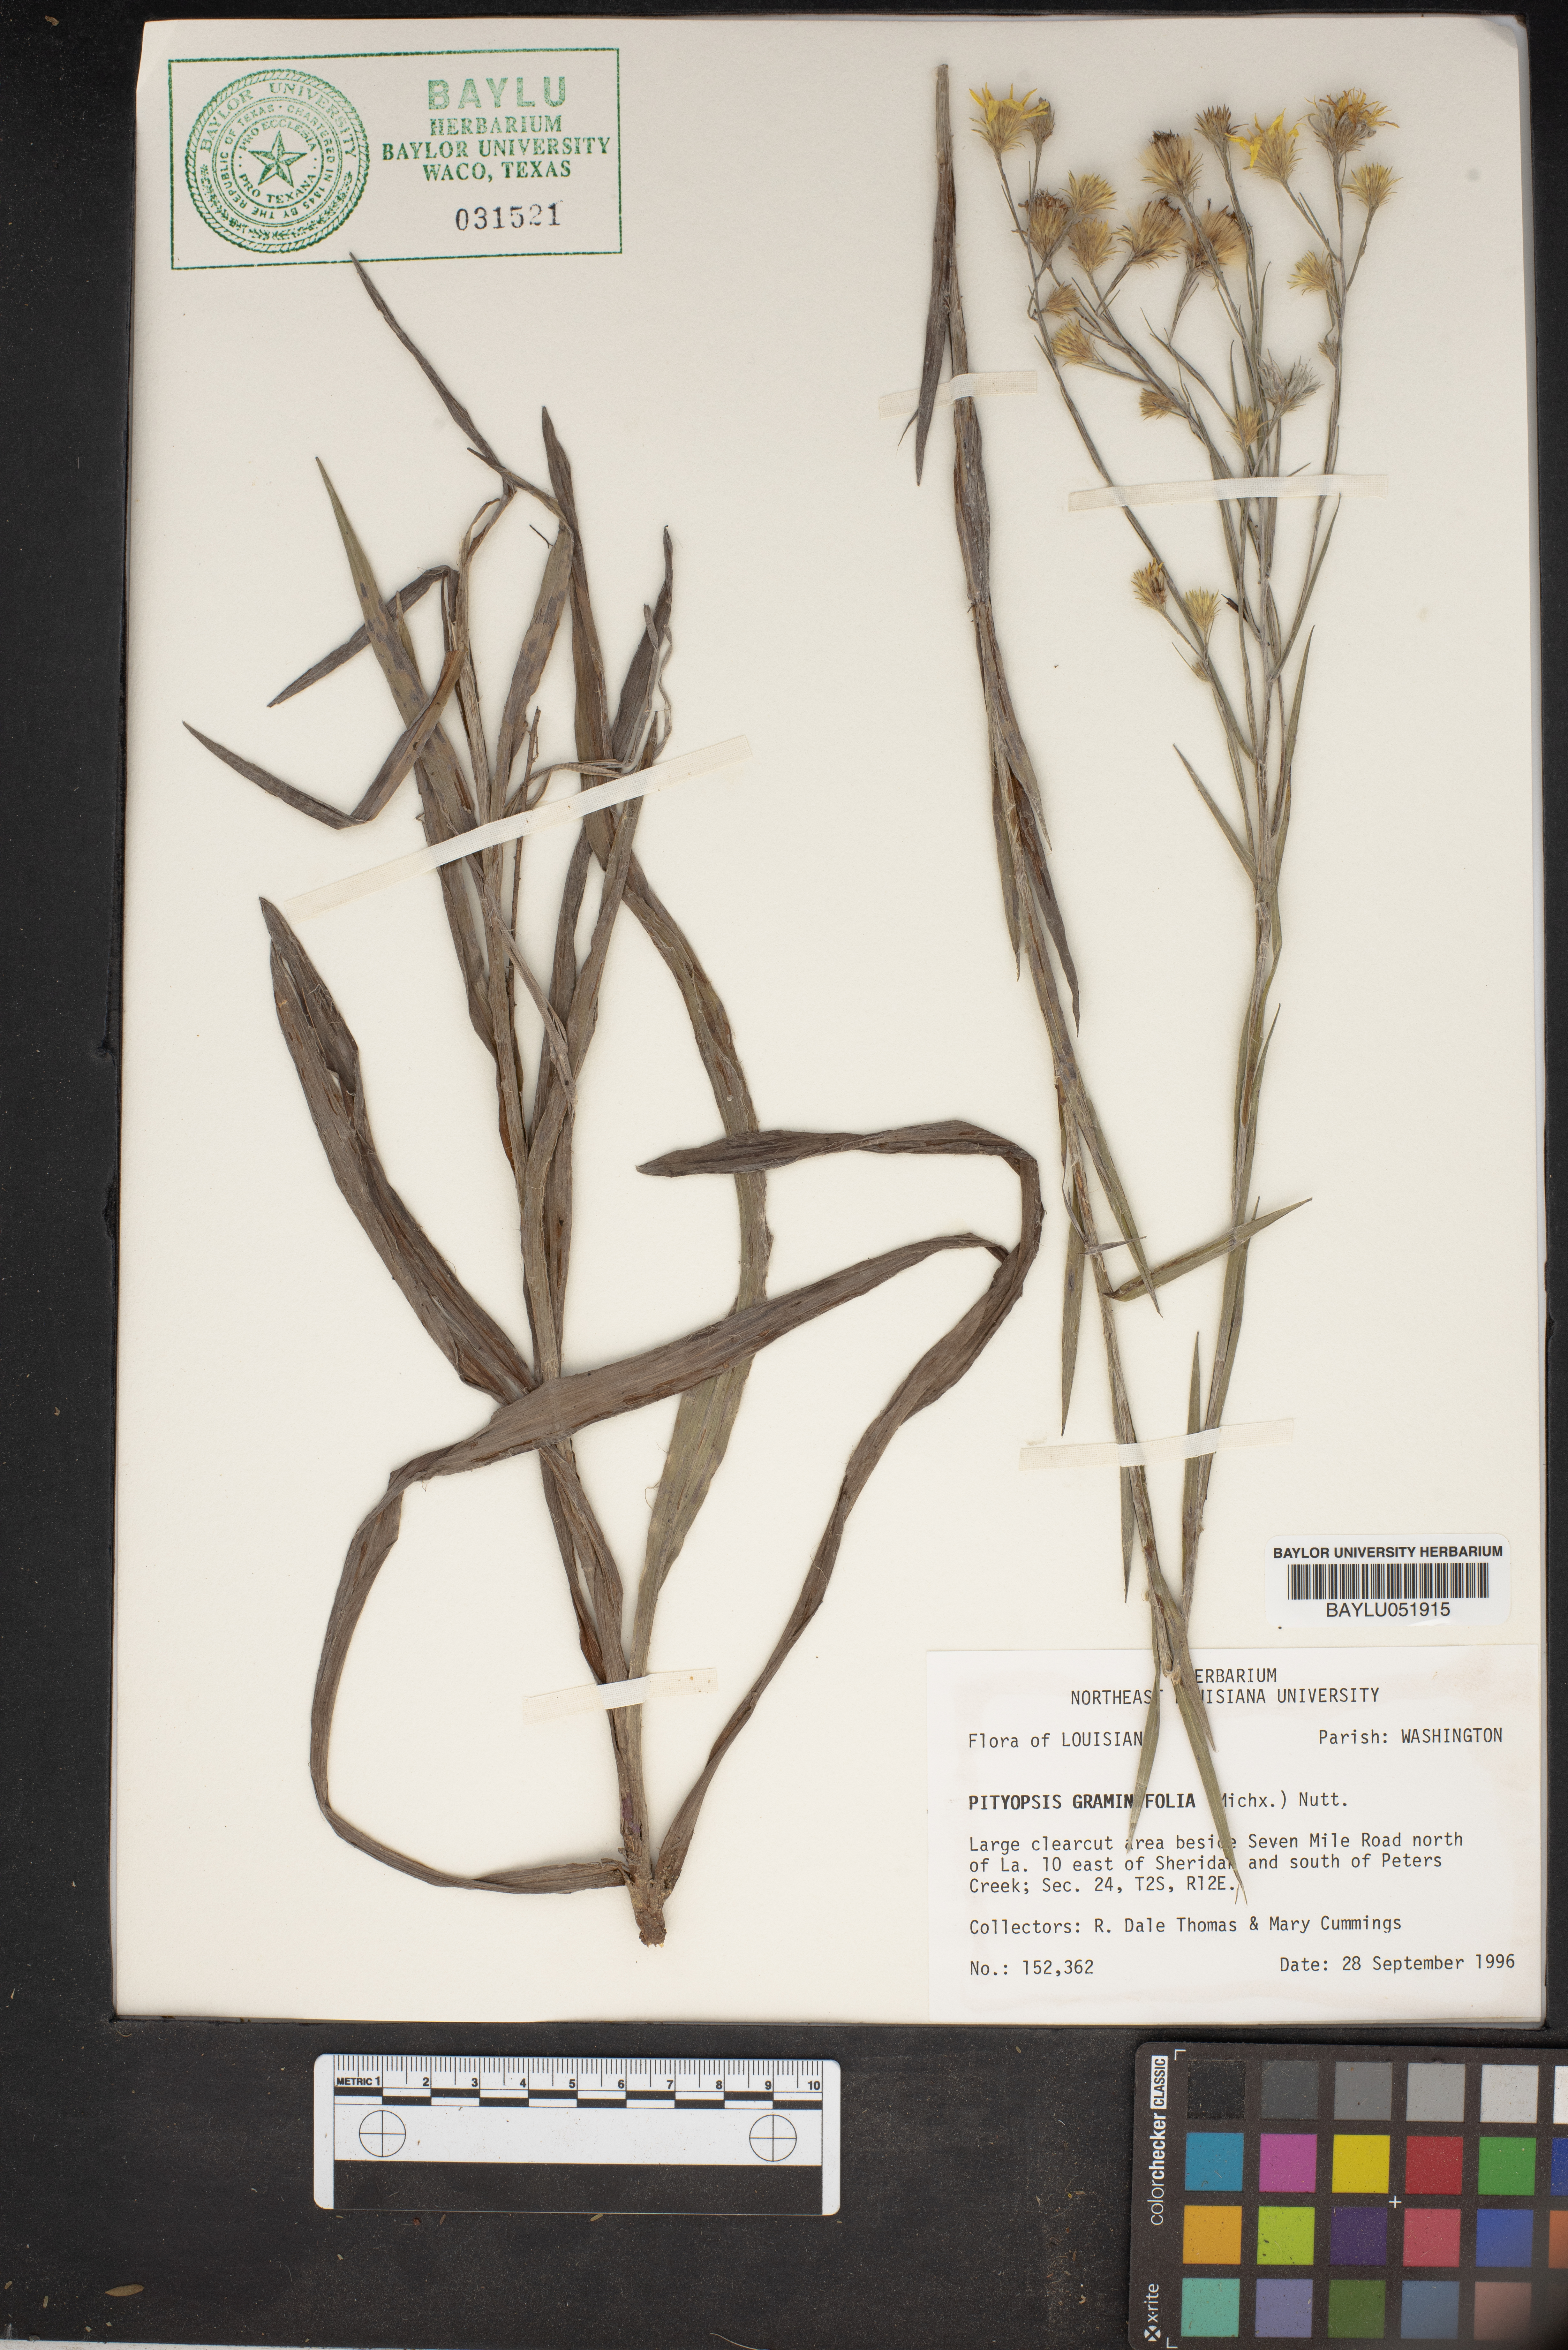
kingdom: Plantae
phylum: Tracheophyta
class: Magnoliopsida
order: Asterales
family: Asteraceae
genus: Pityopsis
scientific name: Pityopsis graminifolia
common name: Grass-leaf golden-aster
